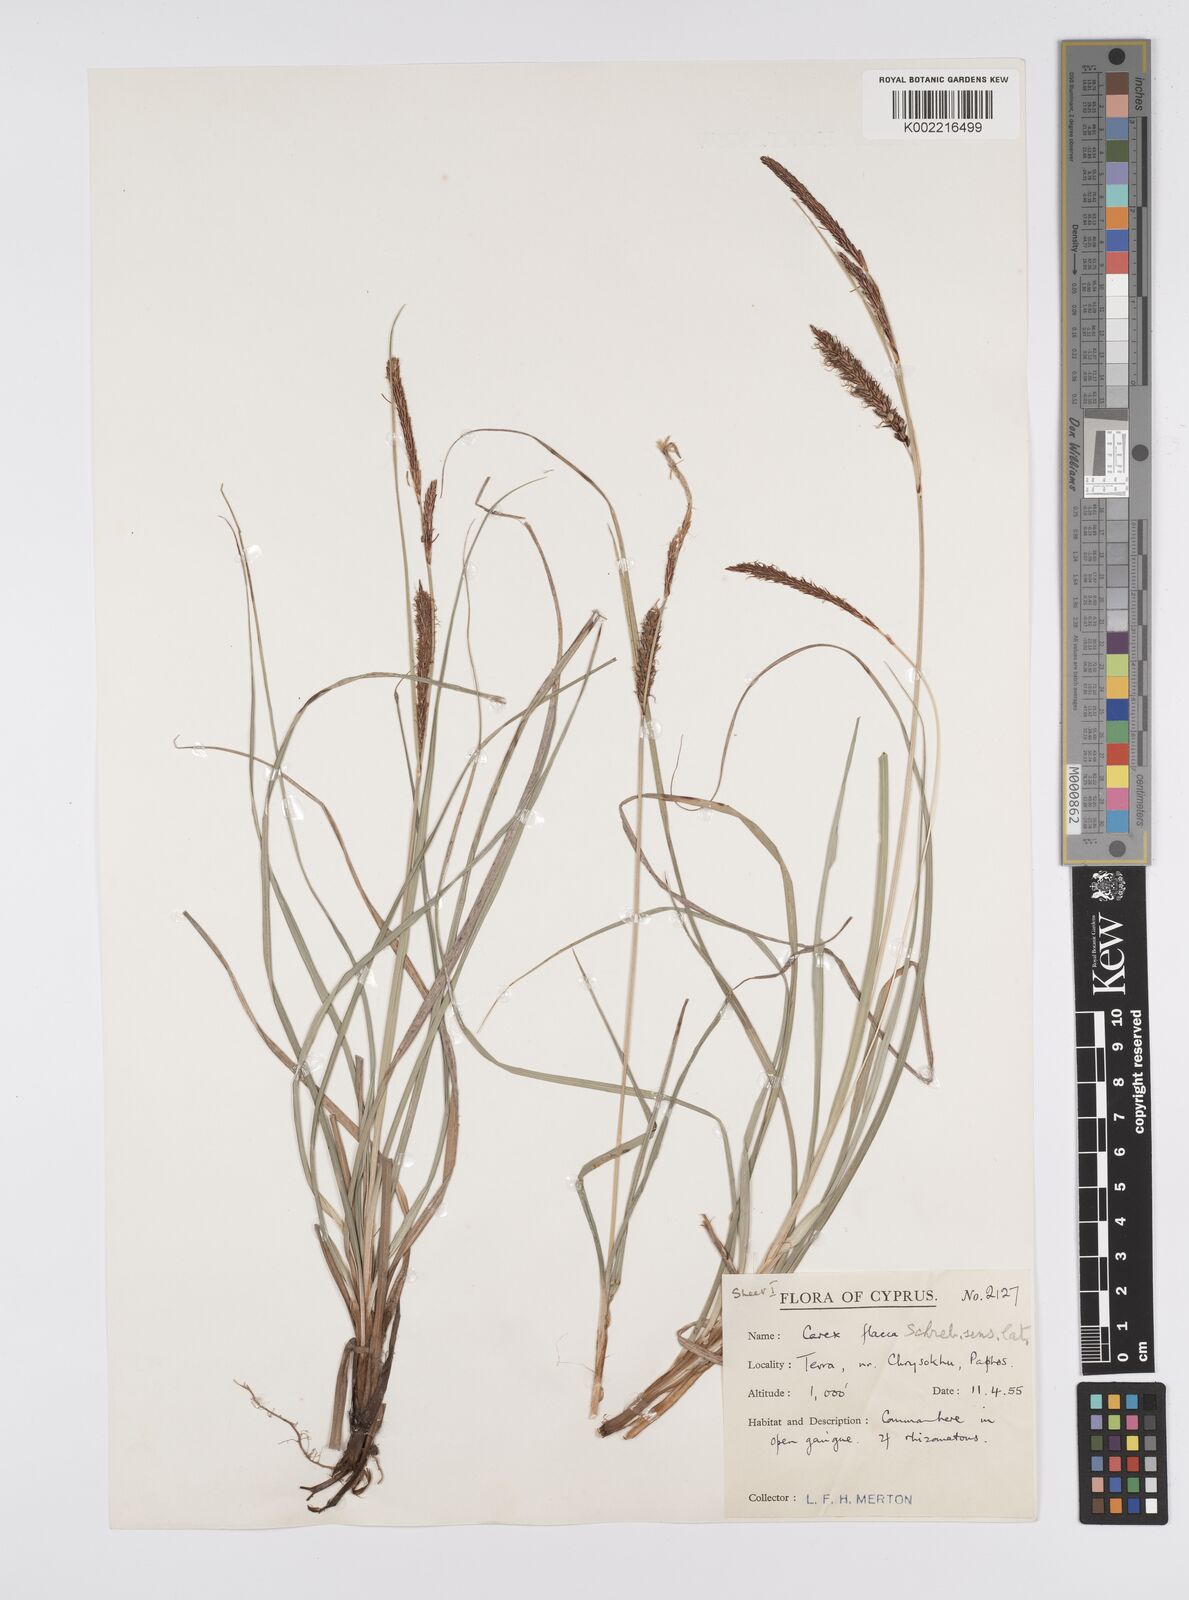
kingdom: Plantae
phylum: Tracheophyta
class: Liliopsida
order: Poales
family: Cyperaceae
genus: Carex
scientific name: Carex flacca
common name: Glaucous sedge
